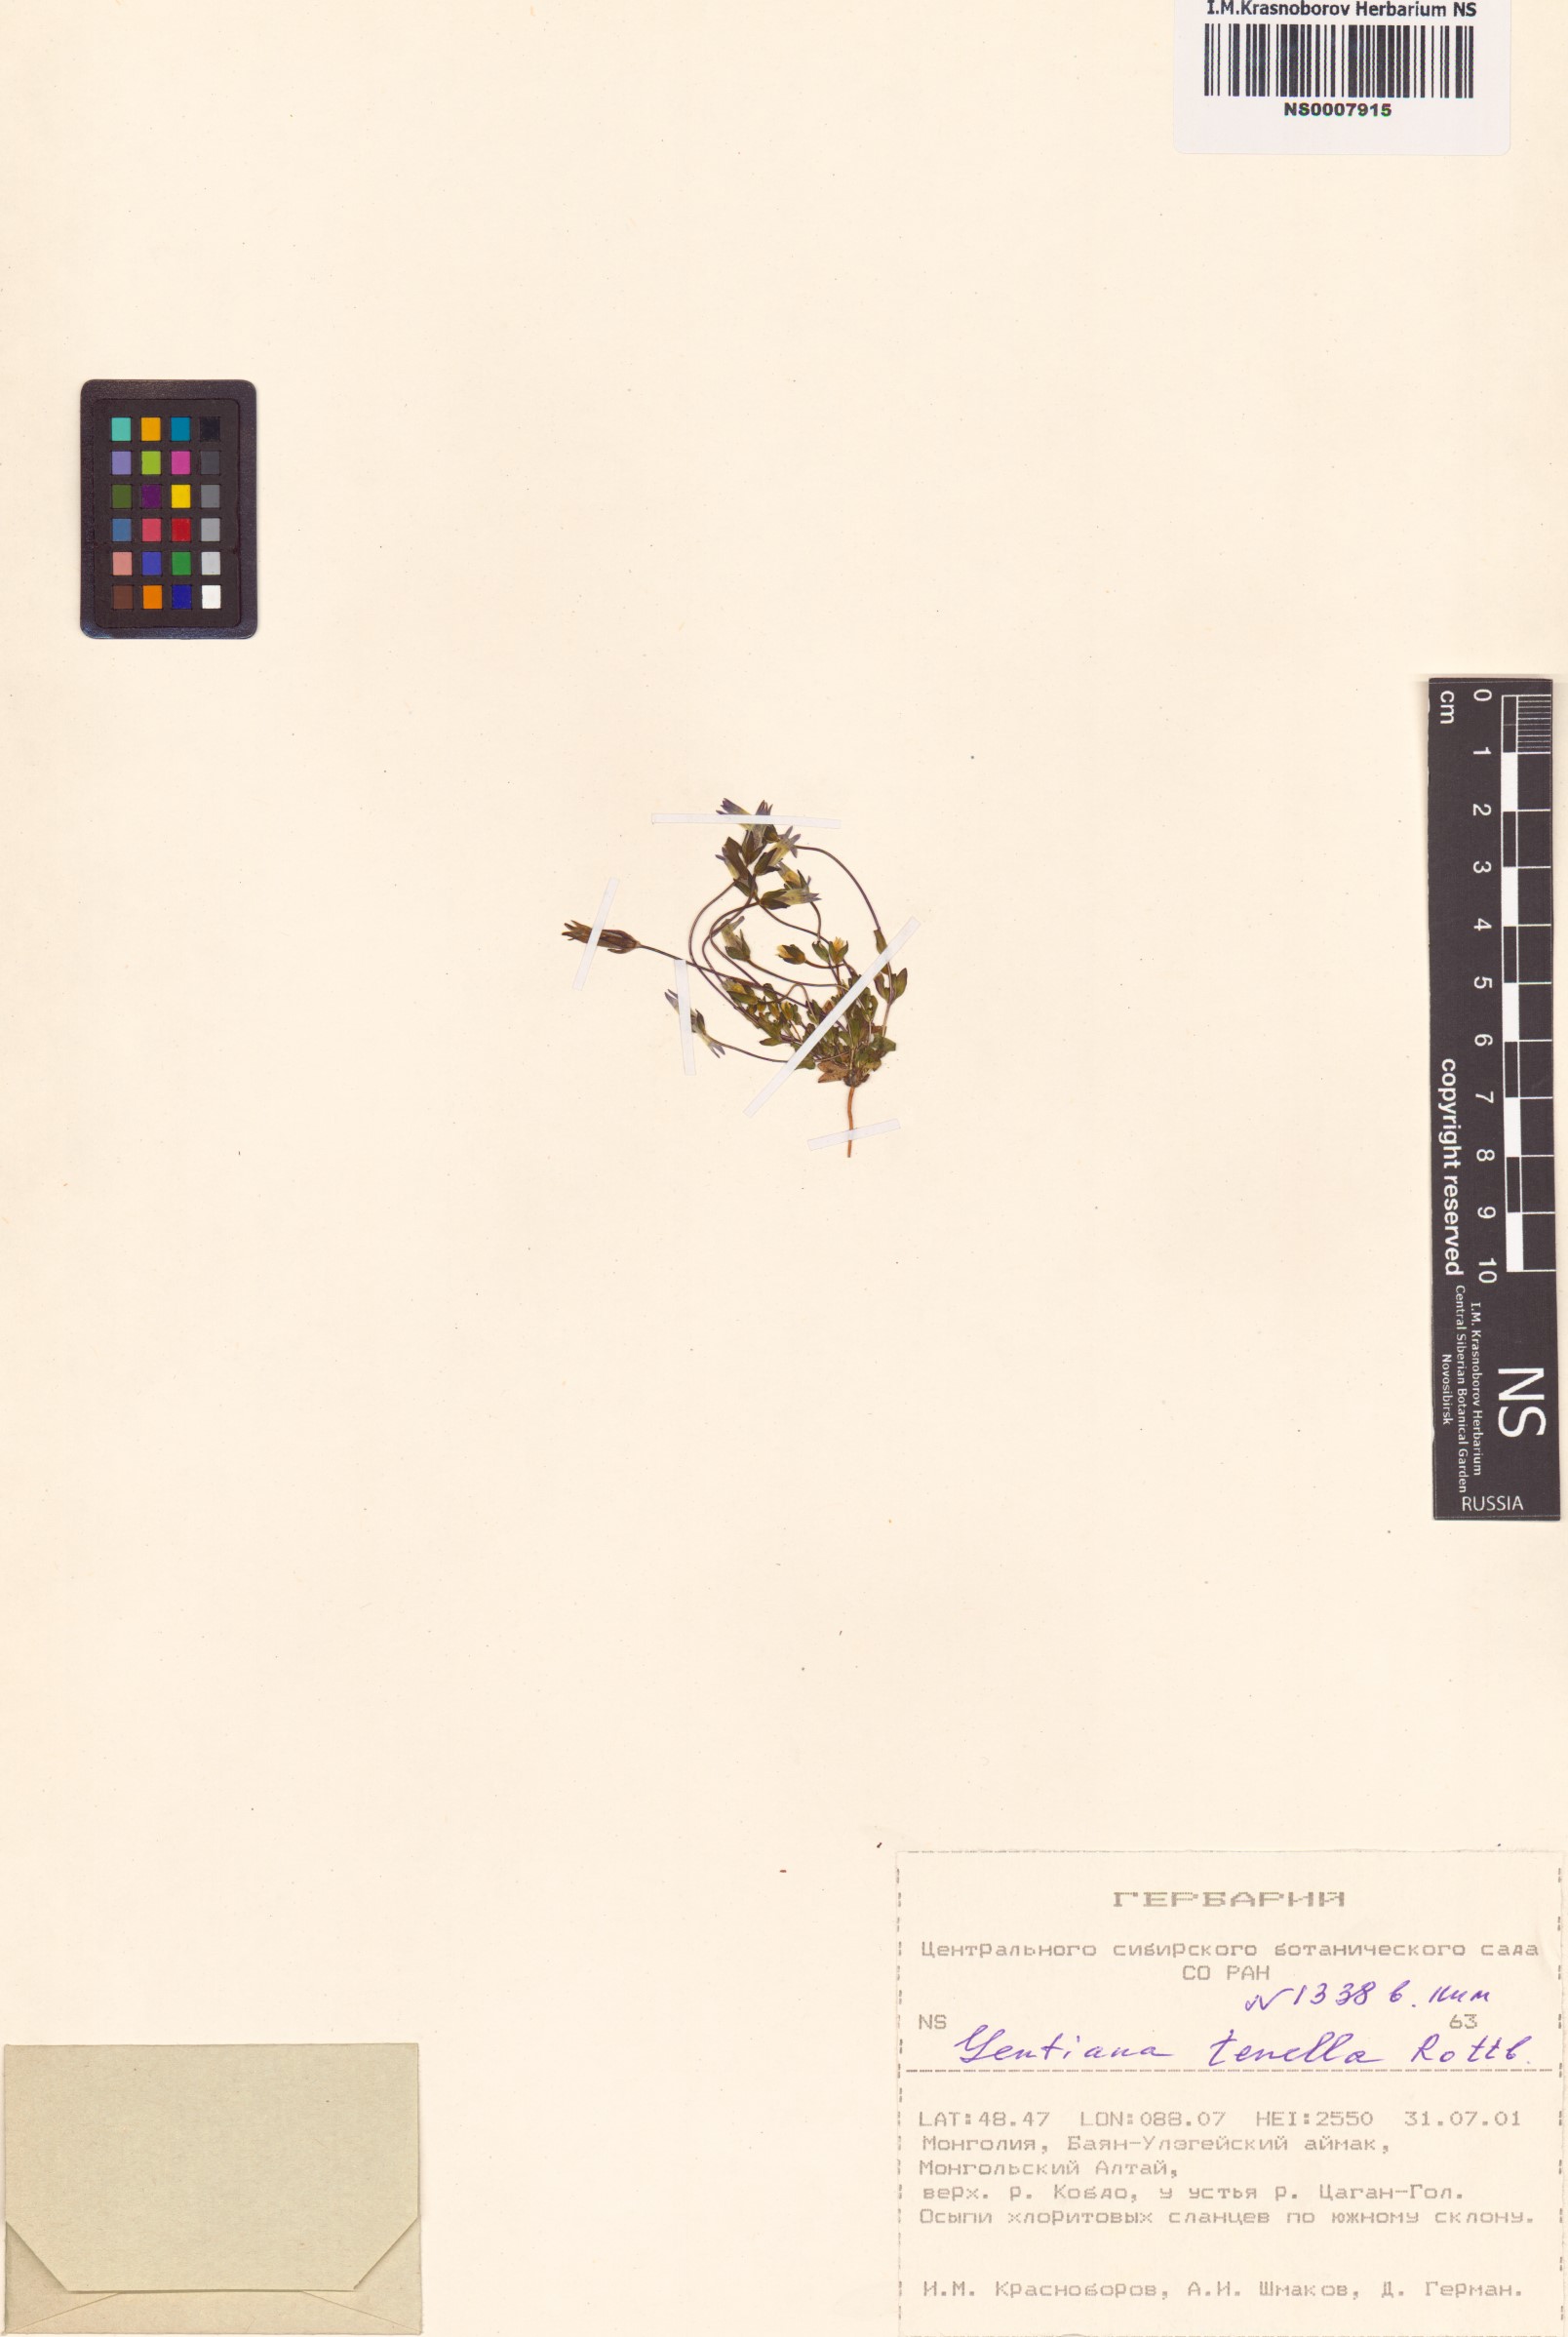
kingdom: Plantae
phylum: Tracheophyta
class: Magnoliopsida
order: Gentianales
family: Gentianaceae
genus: Comastoma
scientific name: Comastoma tenellum
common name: Dane's dwarf gentian
